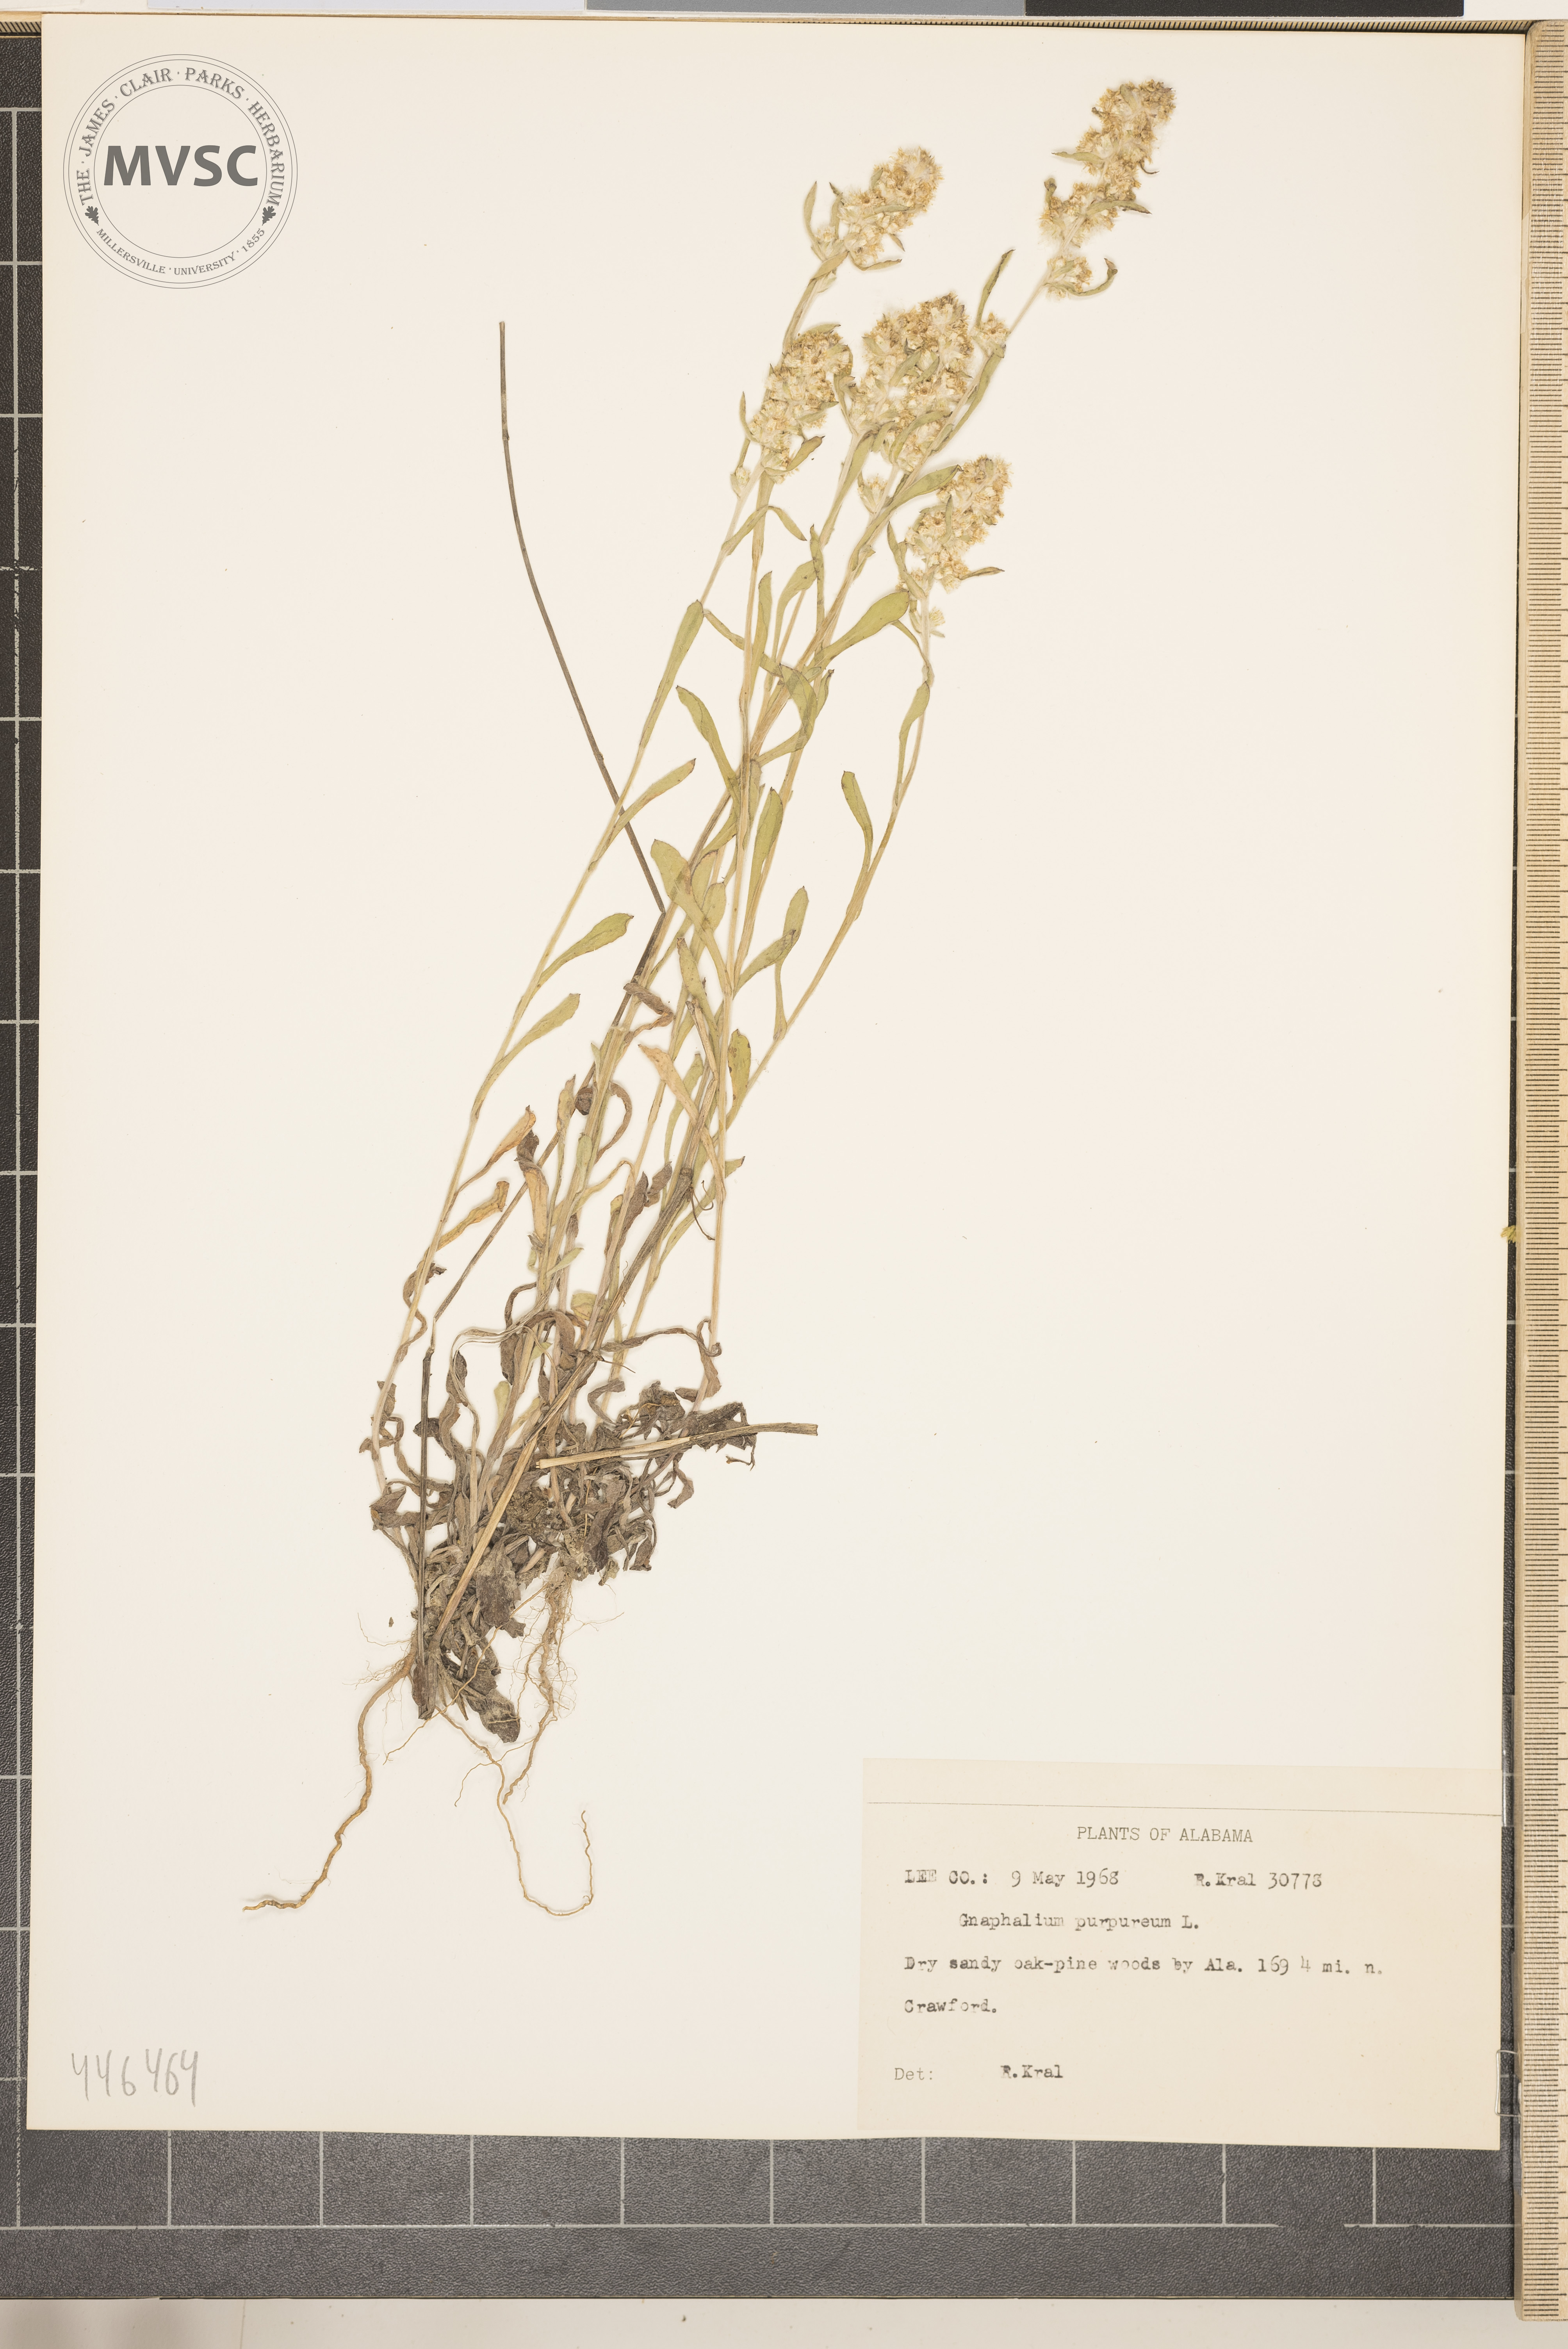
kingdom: Plantae
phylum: Tracheophyta
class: Magnoliopsida
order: Asterales
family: Asteraceae
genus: Gamochaeta
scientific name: Gamochaeta purpurea
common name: Purple cudweed
